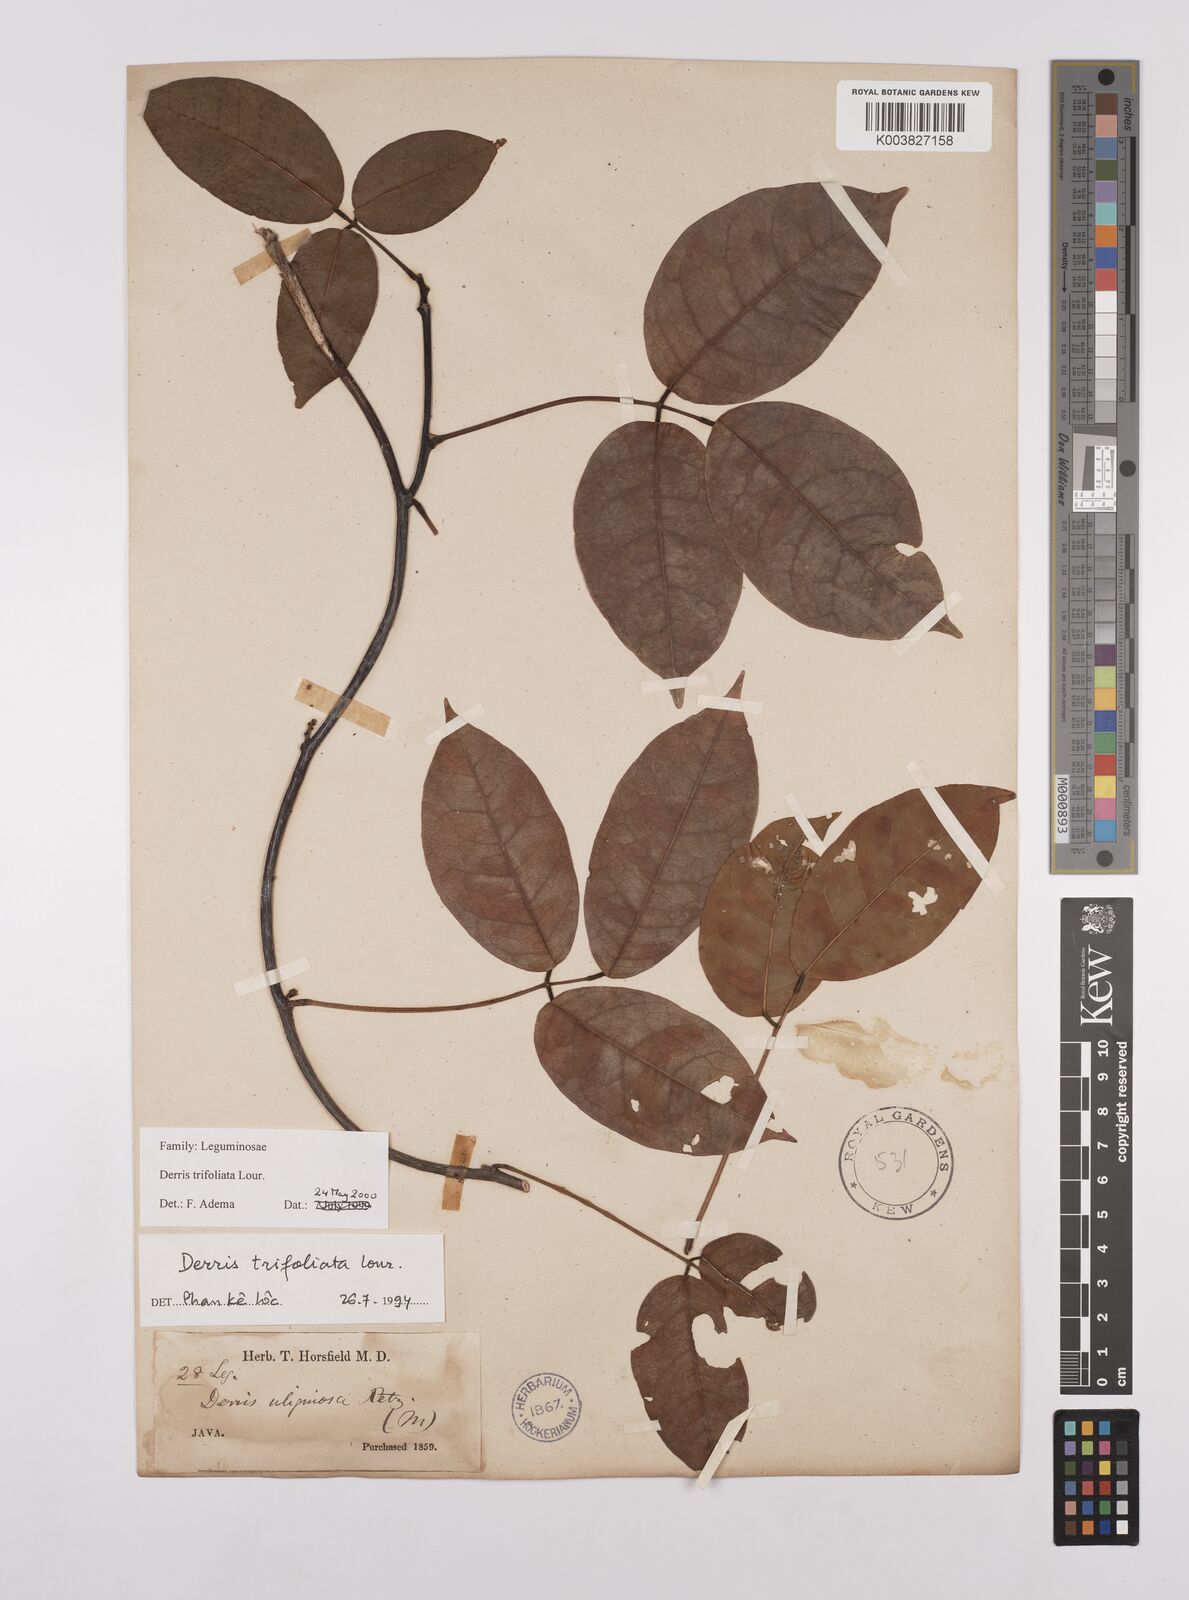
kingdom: Plantae
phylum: Tracheophyta
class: Magnoliopsida
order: Fabales
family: Fabaceae
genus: Derris
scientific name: Derris trifoliata
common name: Three-leaf derris
